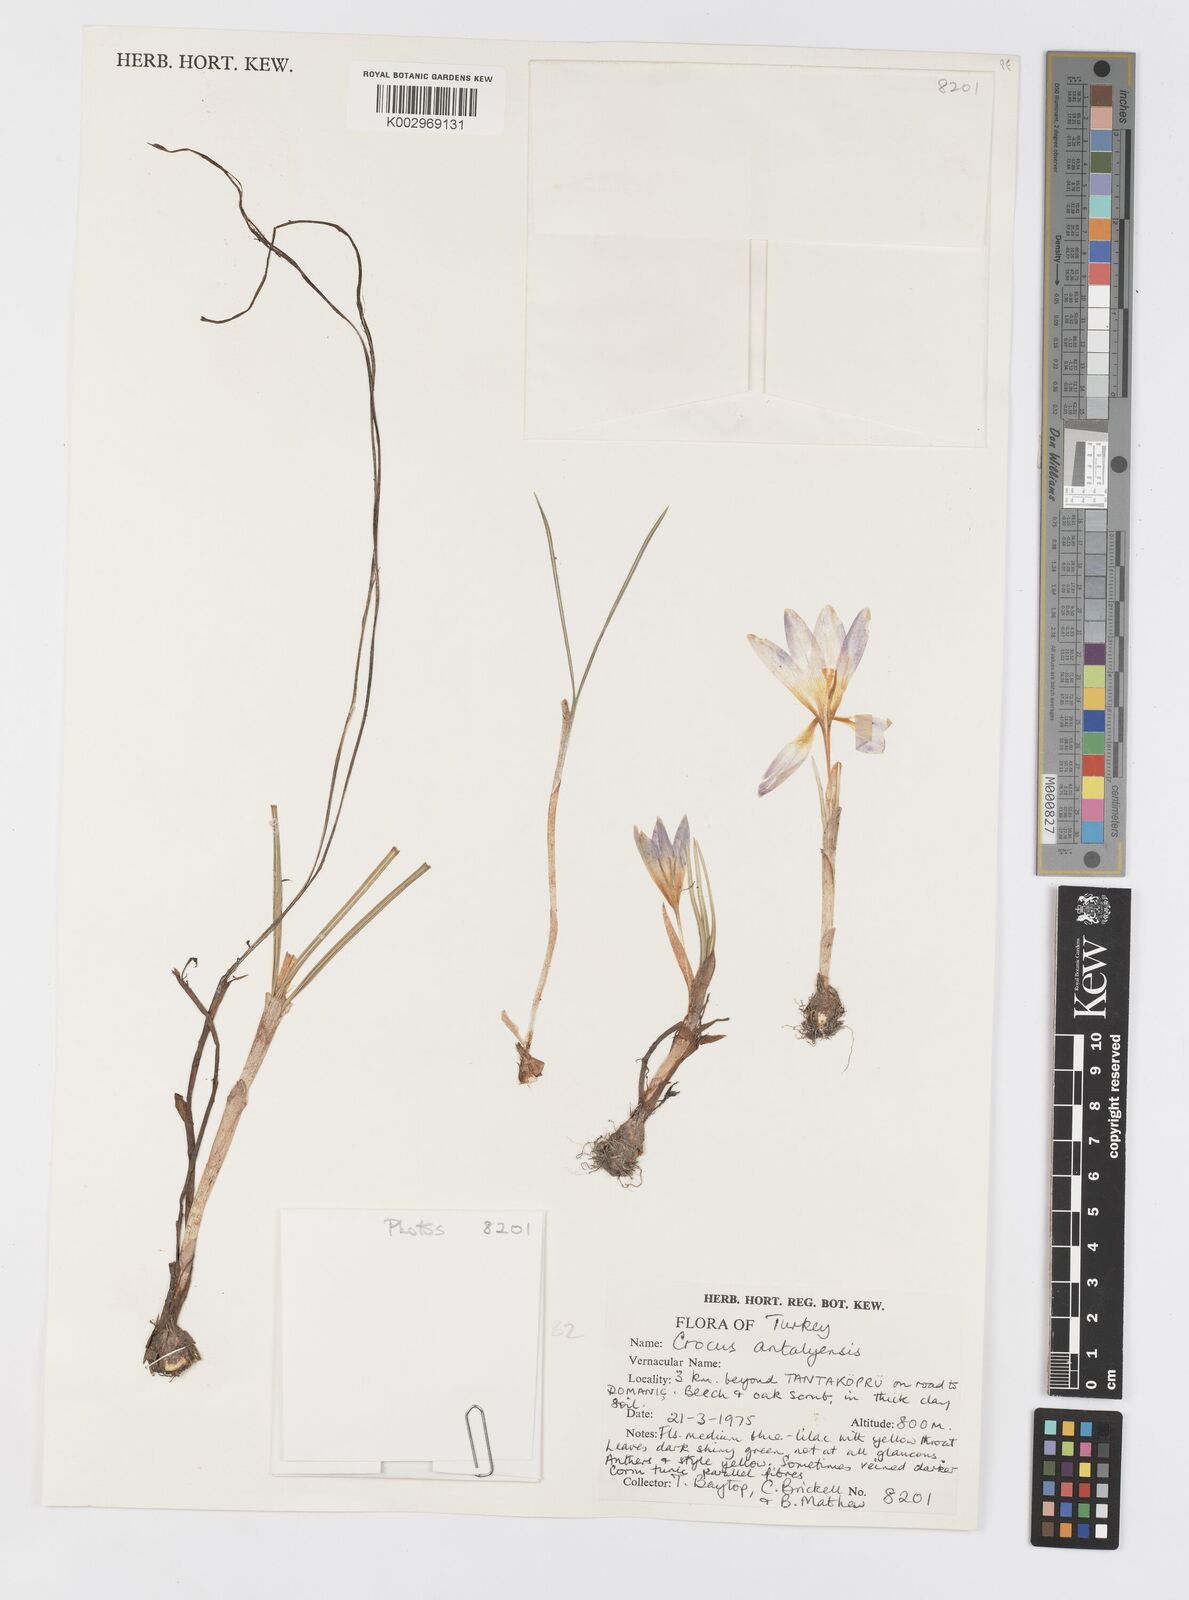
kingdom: Plantae
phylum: Tracheophyta
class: Liliopsida
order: Asparagales
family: Iridaceae
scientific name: Iridaceae
